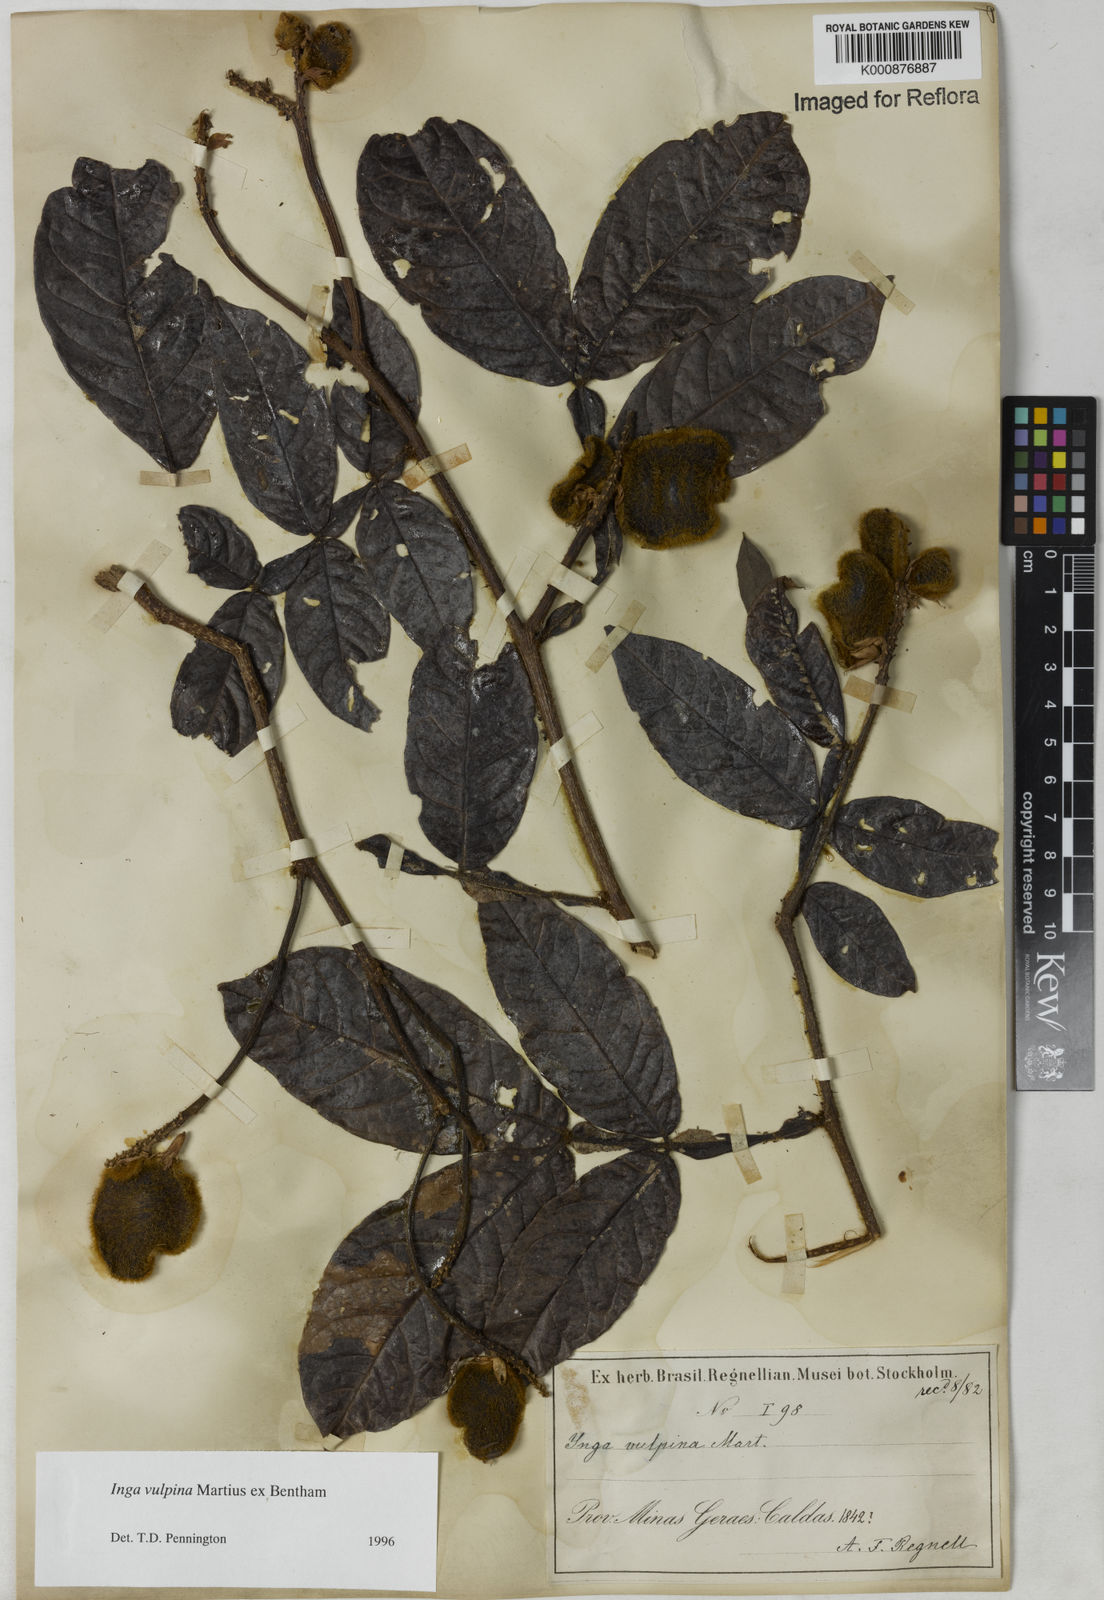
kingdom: Plantae
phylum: Tracheophyta
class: Magnoliopsida
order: Fabales
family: Fabaceae
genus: Inga
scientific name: Inga vulpina
